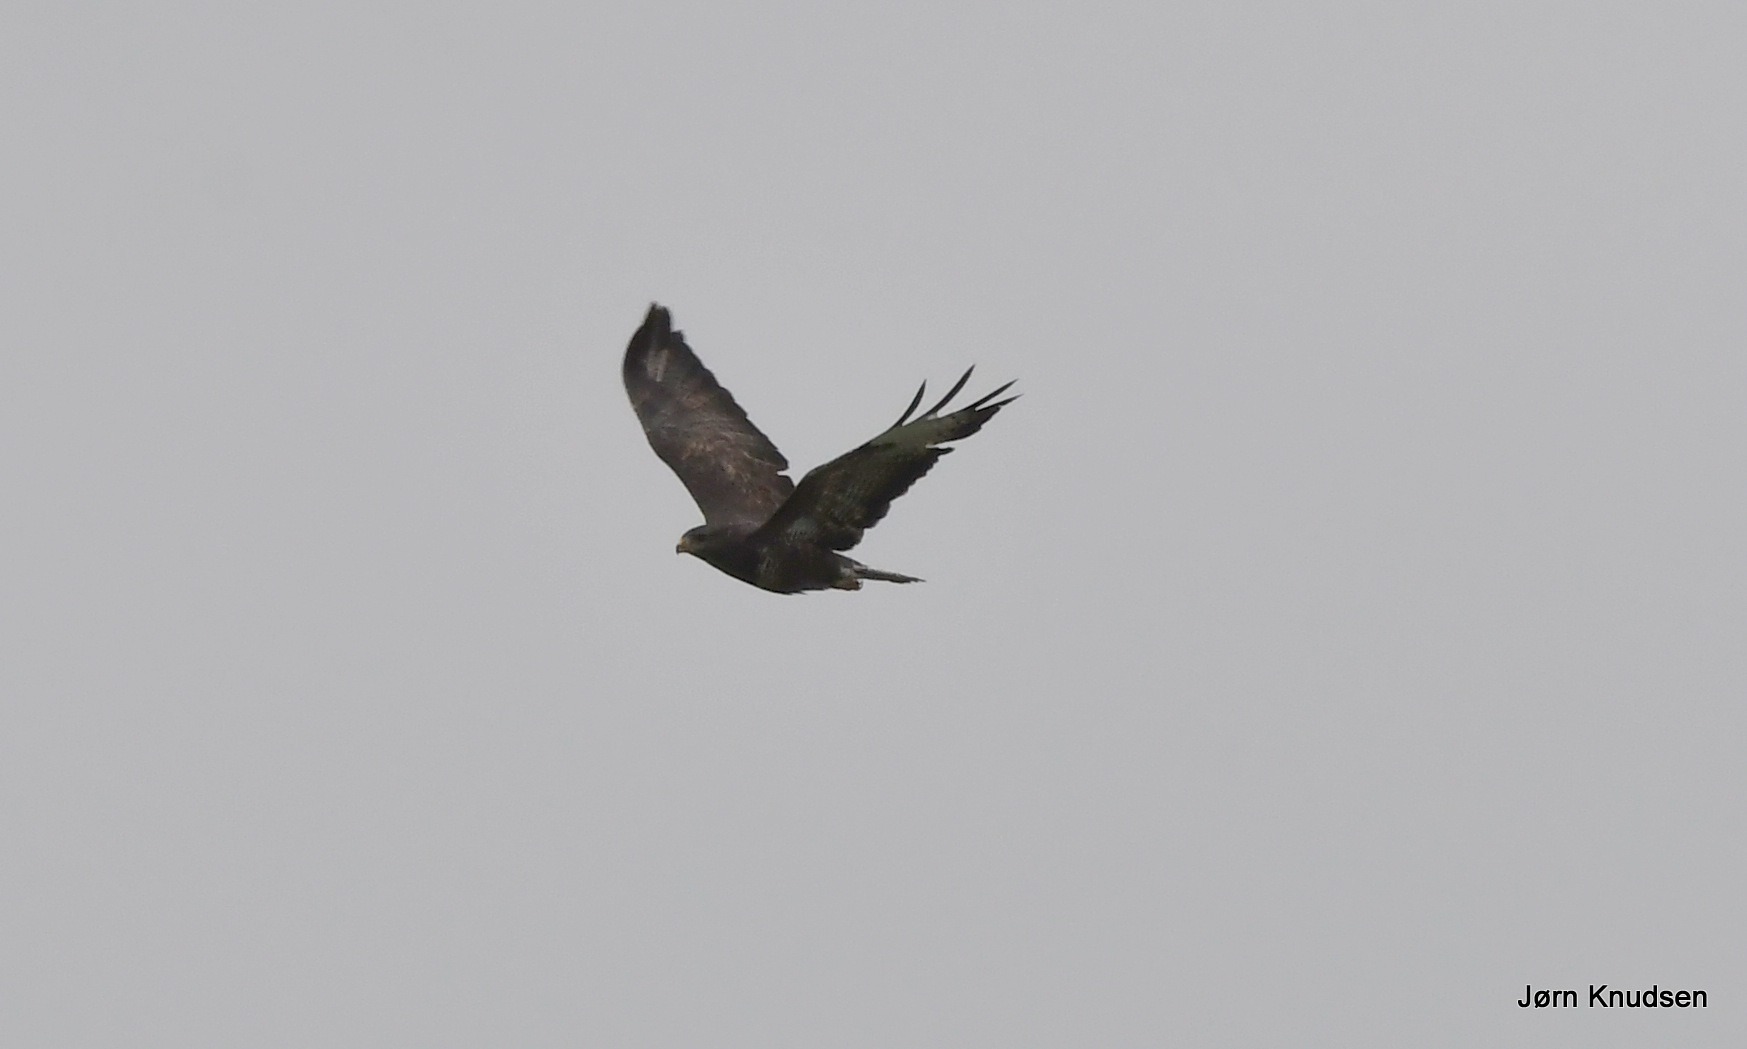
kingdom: Animalia
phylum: Chordata
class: Aves
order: Accipitriformes
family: Accipitridae
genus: Buteo
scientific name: Buteo buteo
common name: Musvåge
